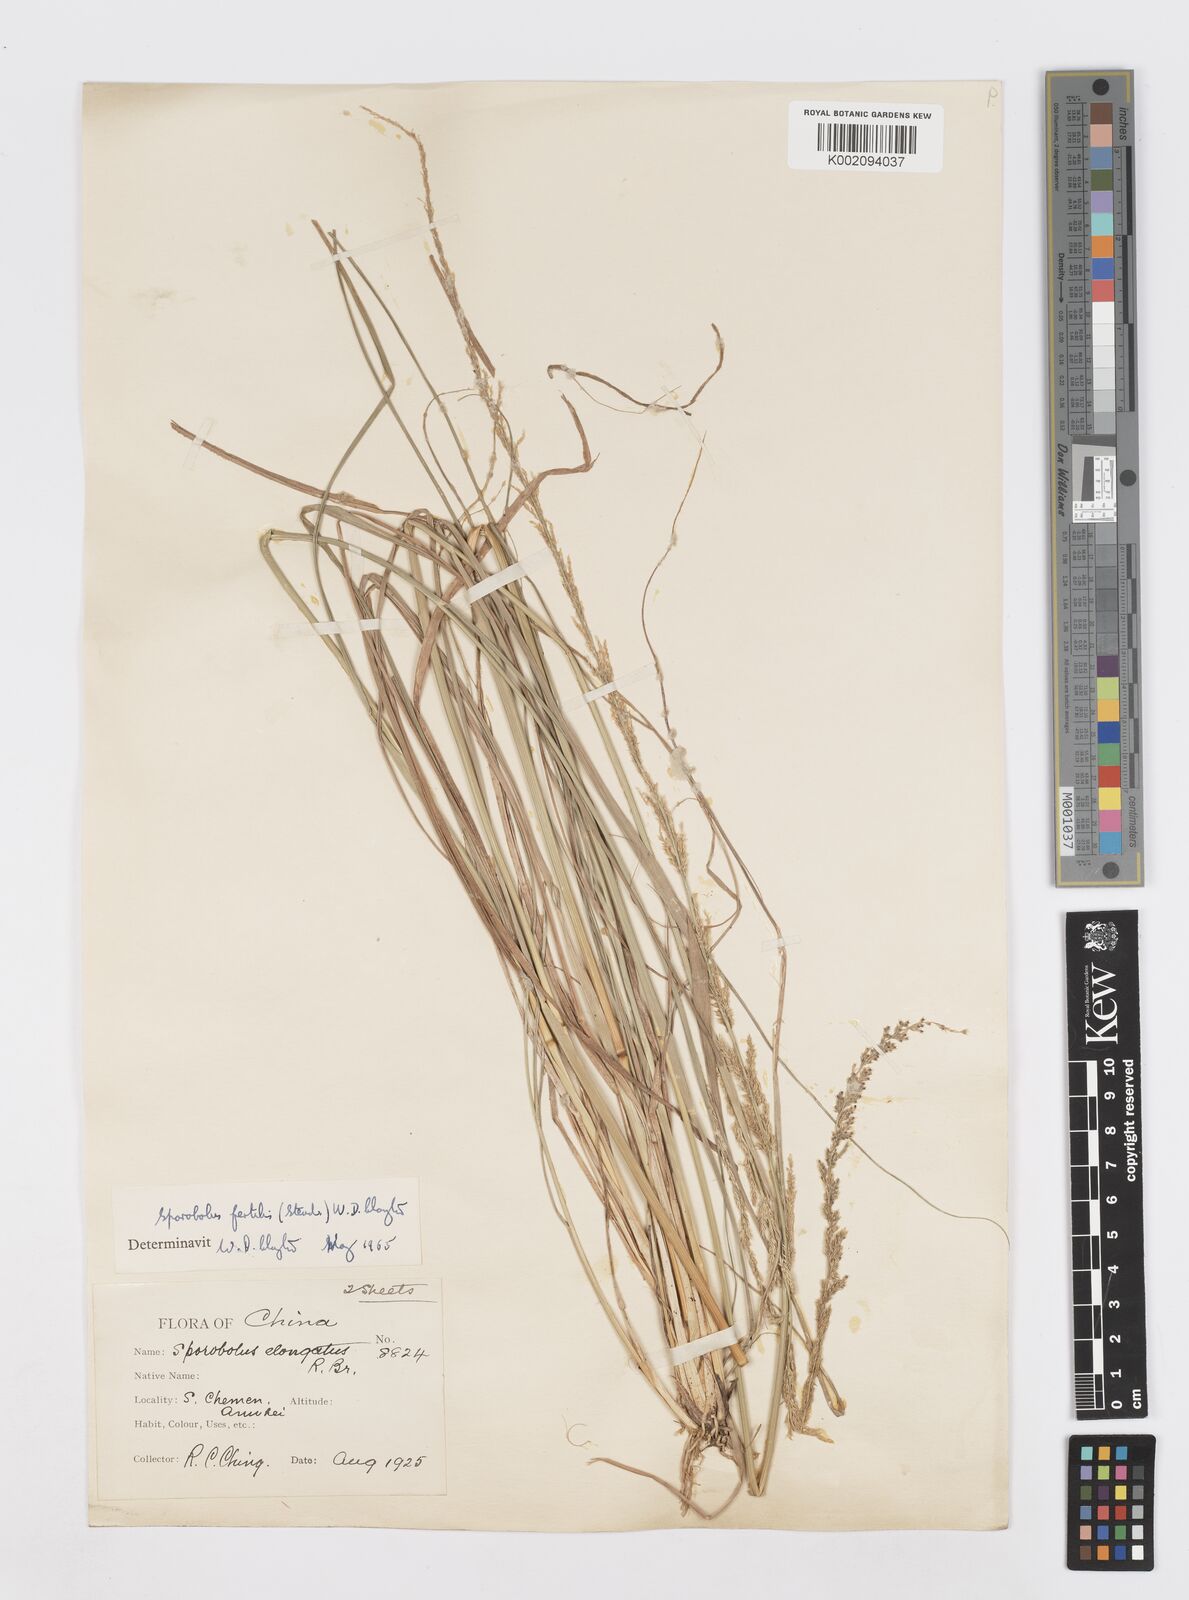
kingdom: Plantae
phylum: Tracheophyta
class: Liliopsida
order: Poales
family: Poaceae
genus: Sporobolus
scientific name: Sporobolus fertilis
